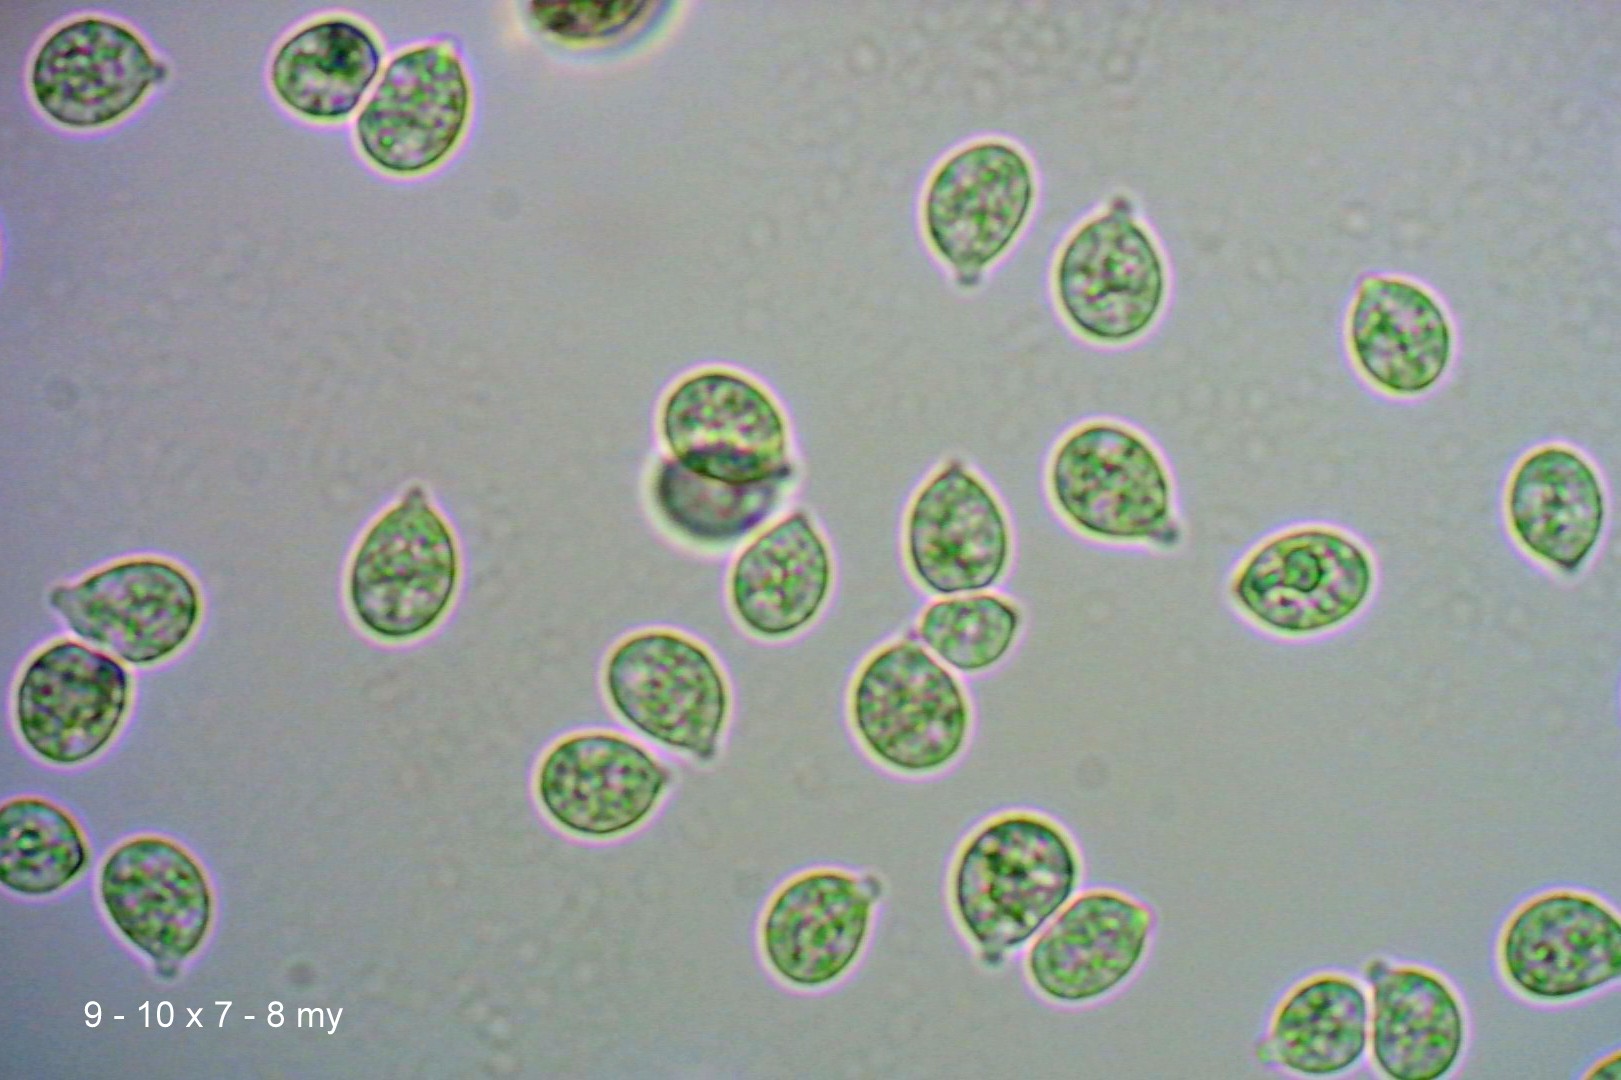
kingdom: Fungi
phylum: Basidiomycota
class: Tremellomycetes
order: Tremellales
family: Tremellaceae
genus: Phaeotremella
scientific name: Phaeotremella frondosa
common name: kæmpe-bævresvamp
